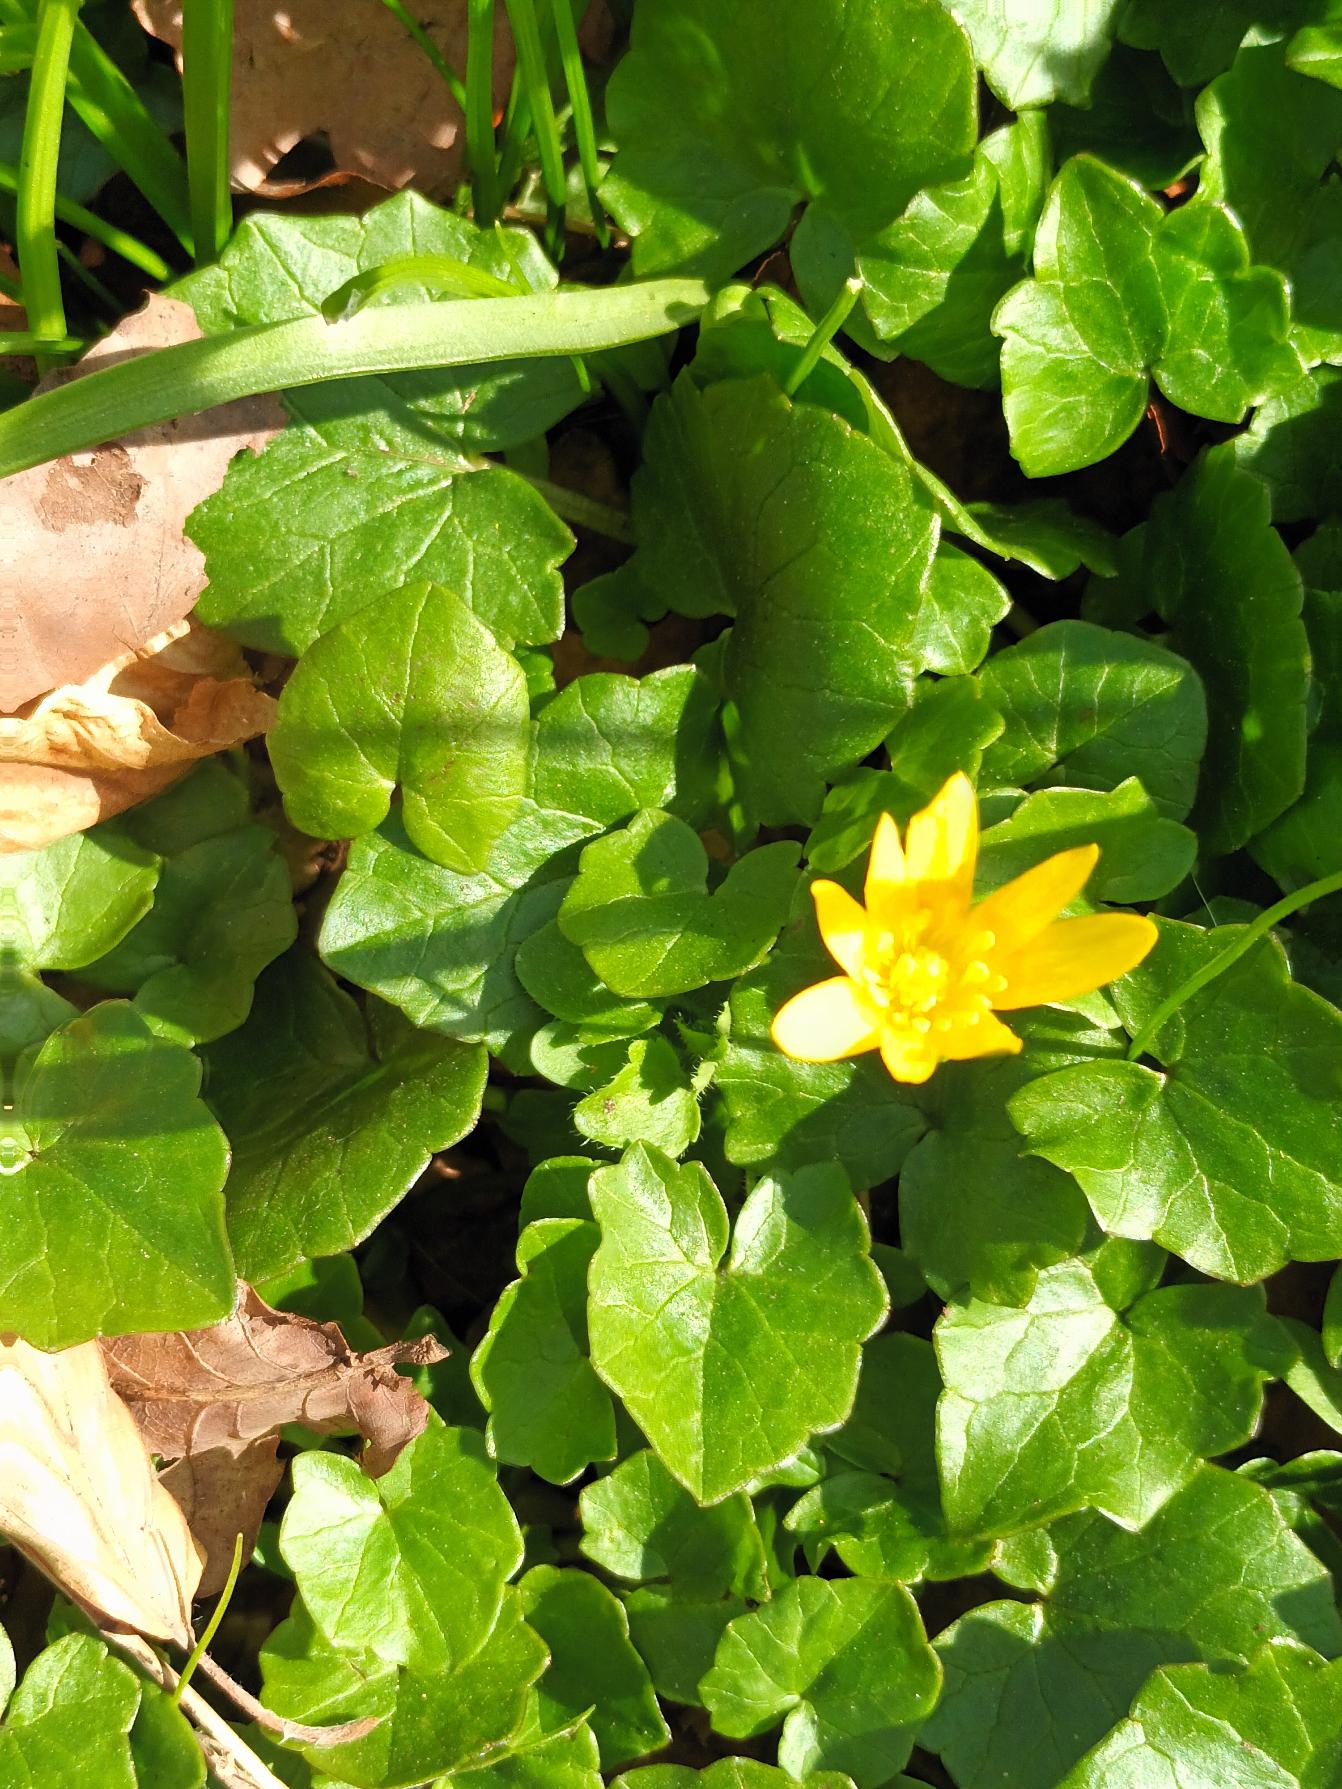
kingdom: Plantae
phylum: Tracheophyta
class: Magnoliopsida
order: Ranunculales
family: Ranunculaceae
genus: Ficaria
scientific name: Ficaria verna
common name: Vorterod
